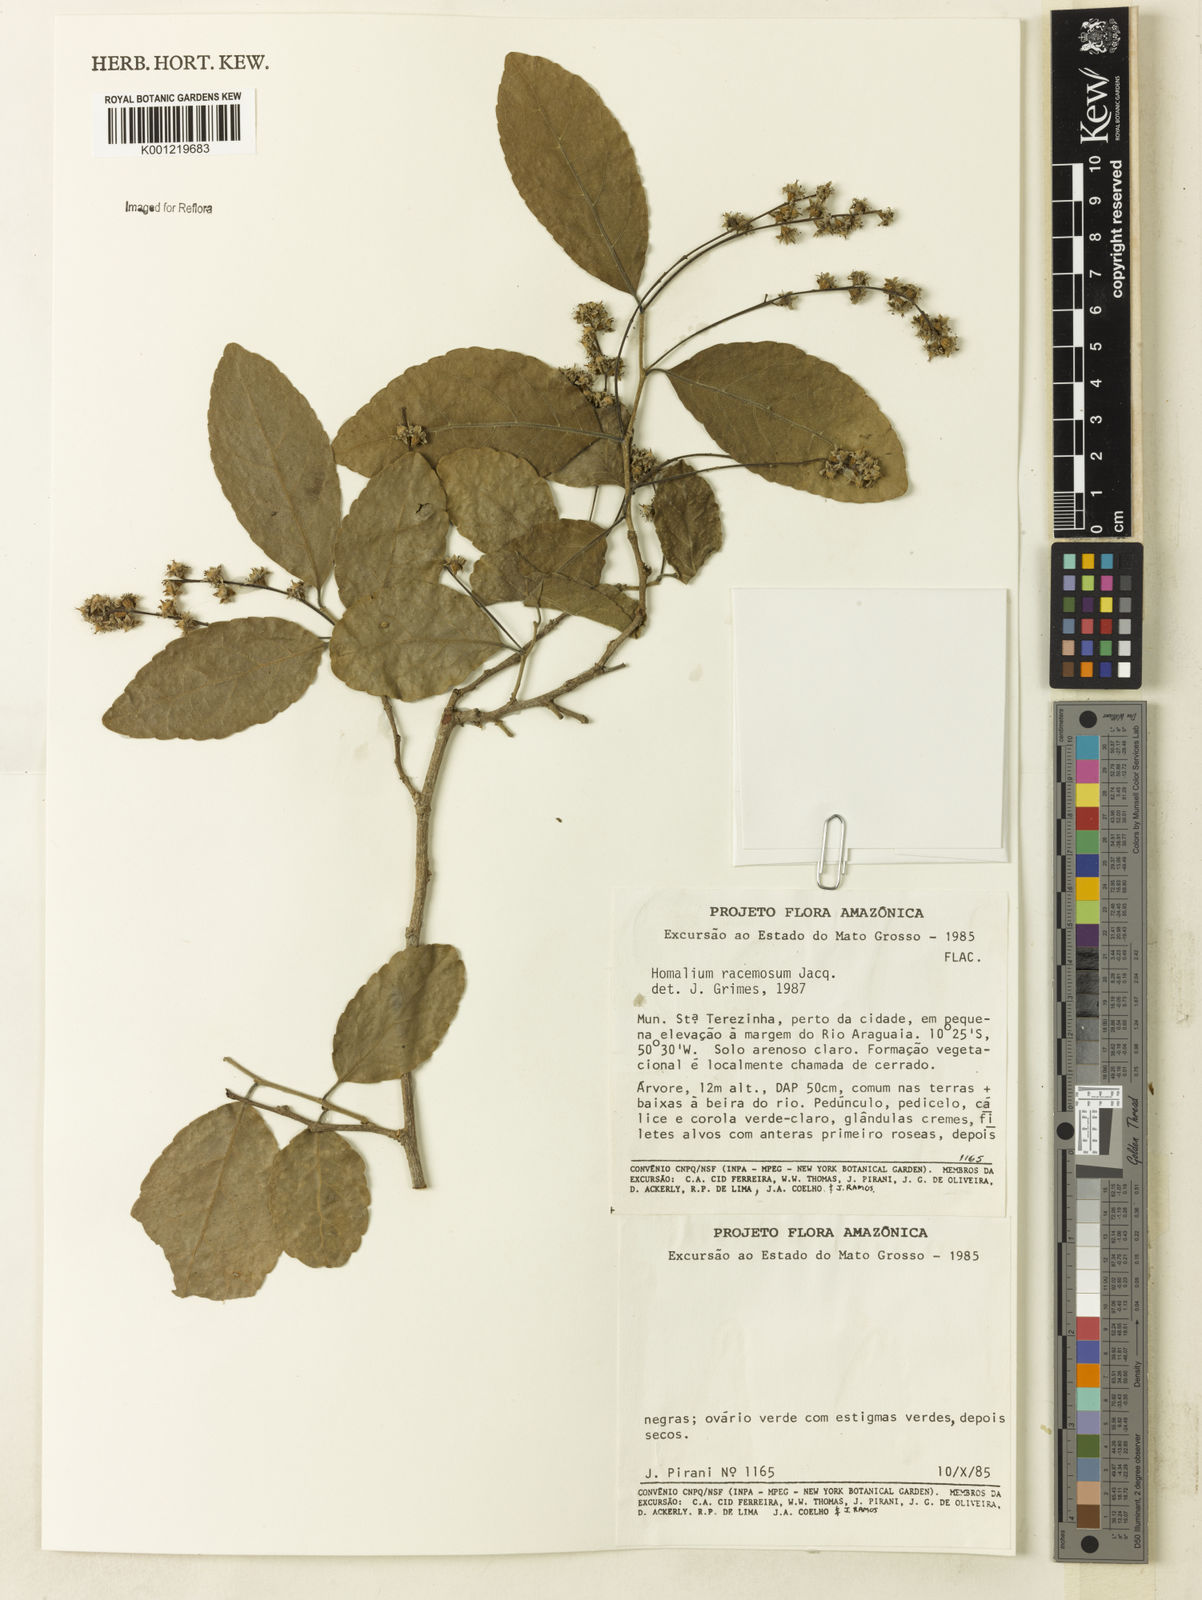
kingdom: Plantae
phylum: Tracheophyta
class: Magnoliopsida
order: Malpighiales
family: Salicaceae
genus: Homalium
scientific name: Homalium racemosum
